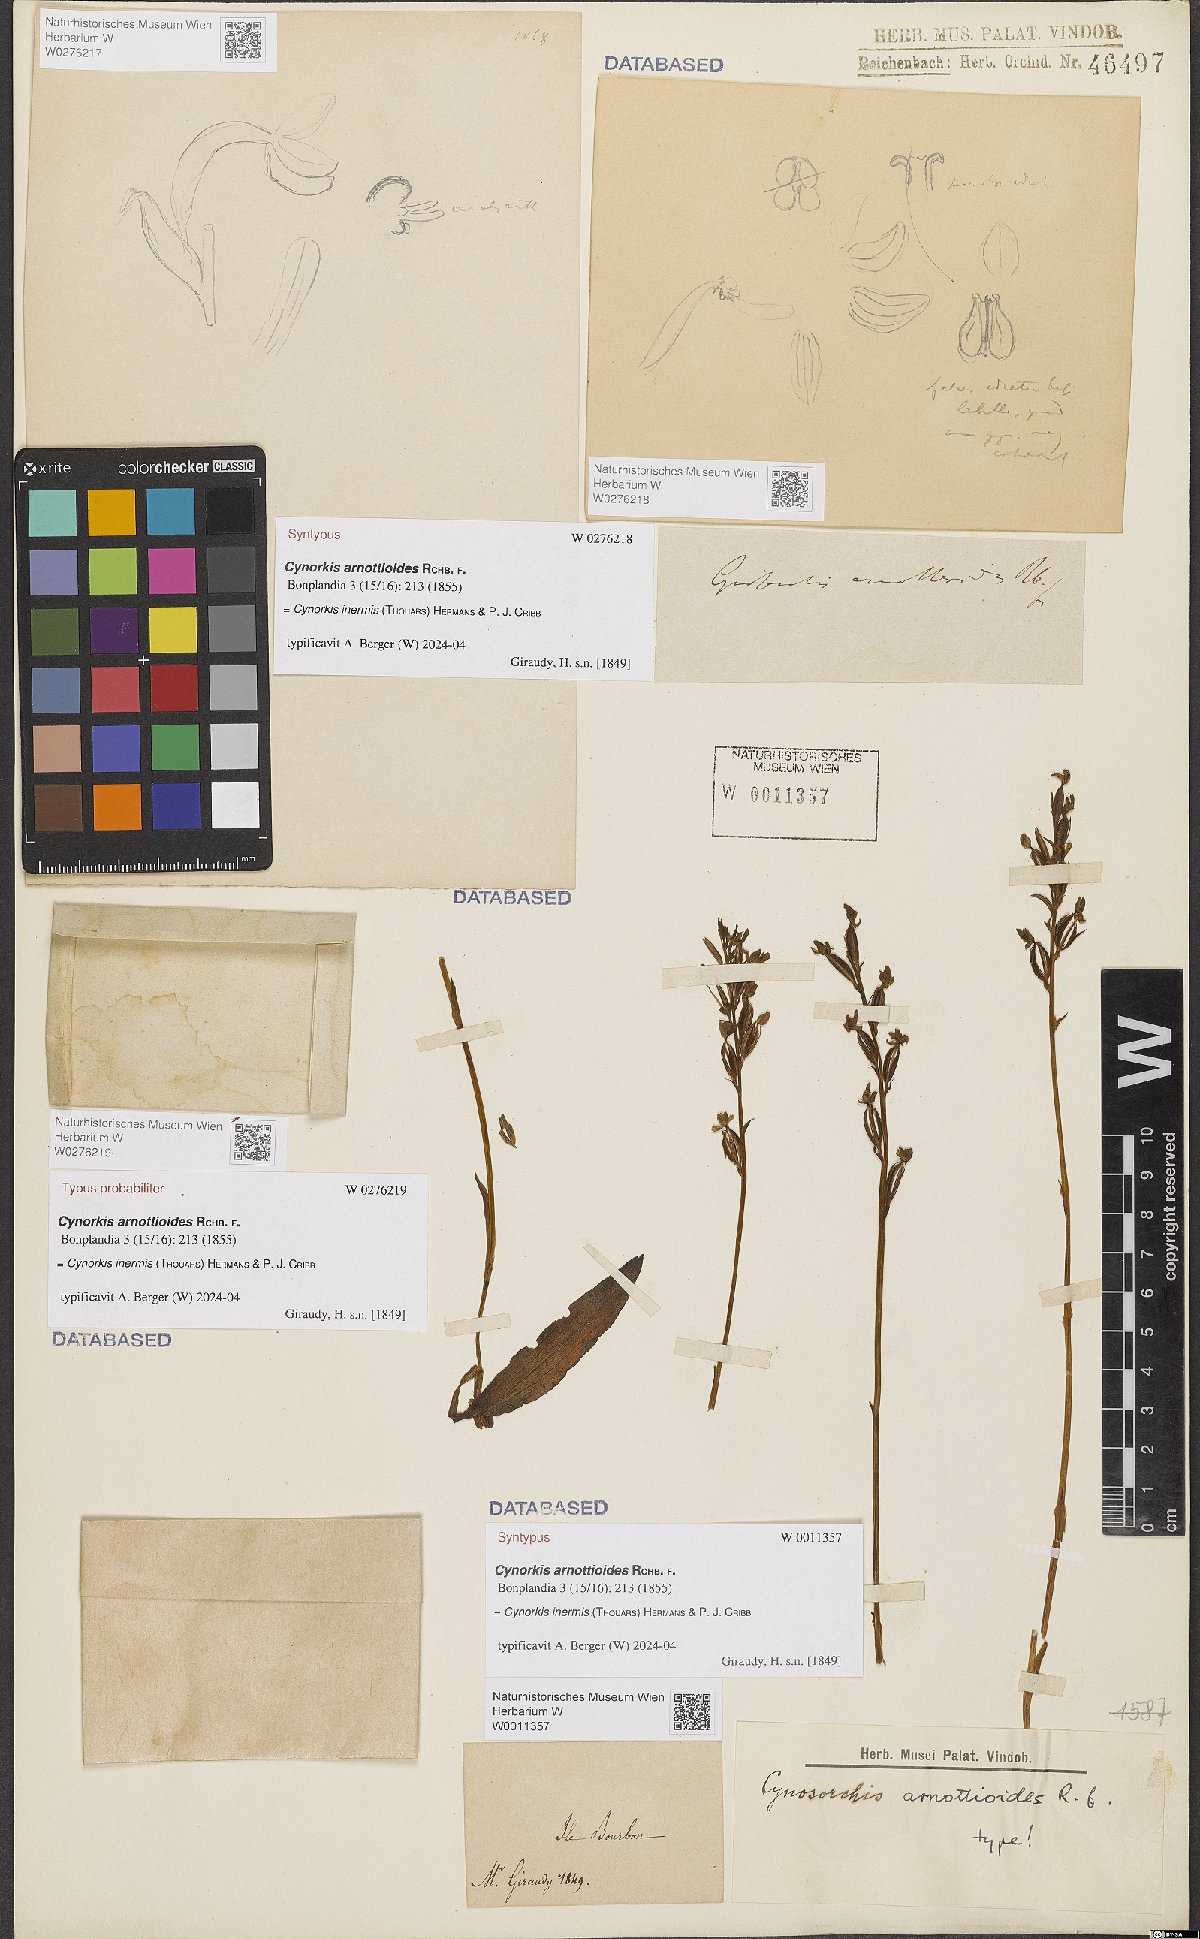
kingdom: Plantae
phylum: Tracheophyta
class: Liliopsida
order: Asparagales
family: Orchidaceae
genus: Cynorkis
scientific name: Cynorkis inermis
